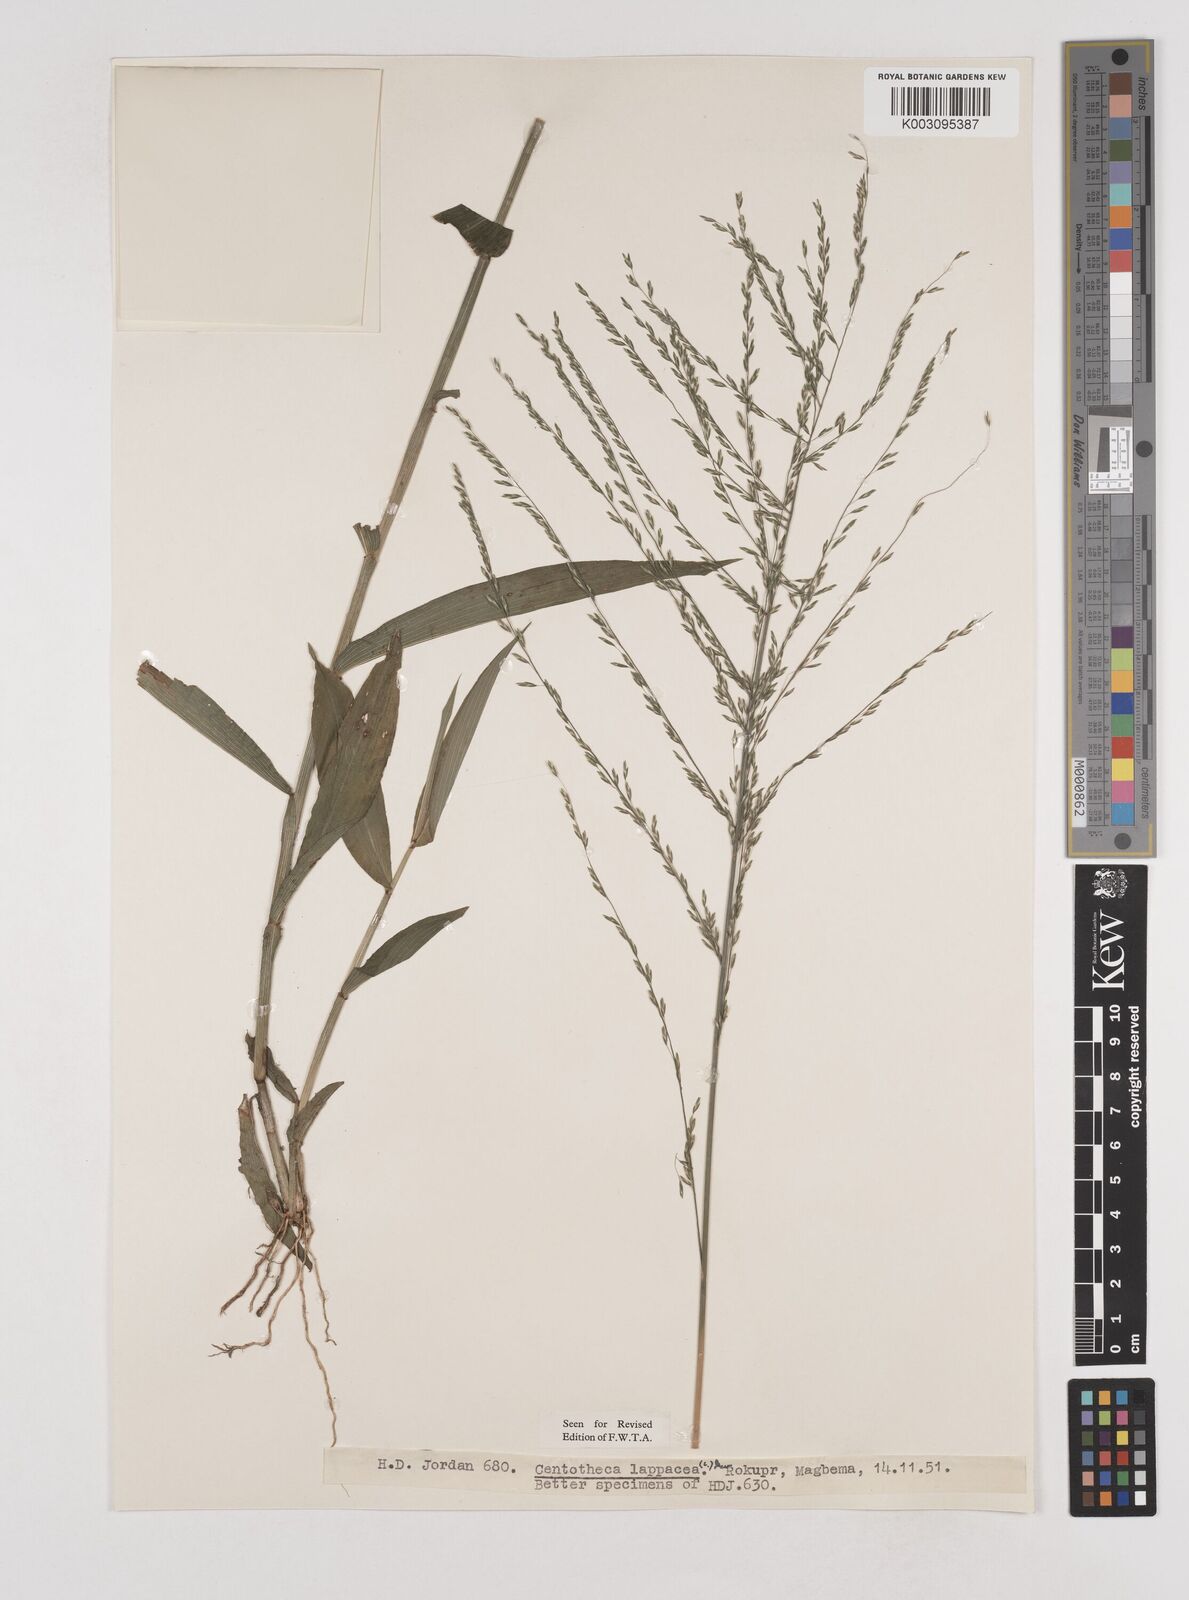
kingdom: Plantae
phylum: Tracheophyta
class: Liliopsida
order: Poales
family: Poaceae
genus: Centotheca
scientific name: Centotheca lappacea
